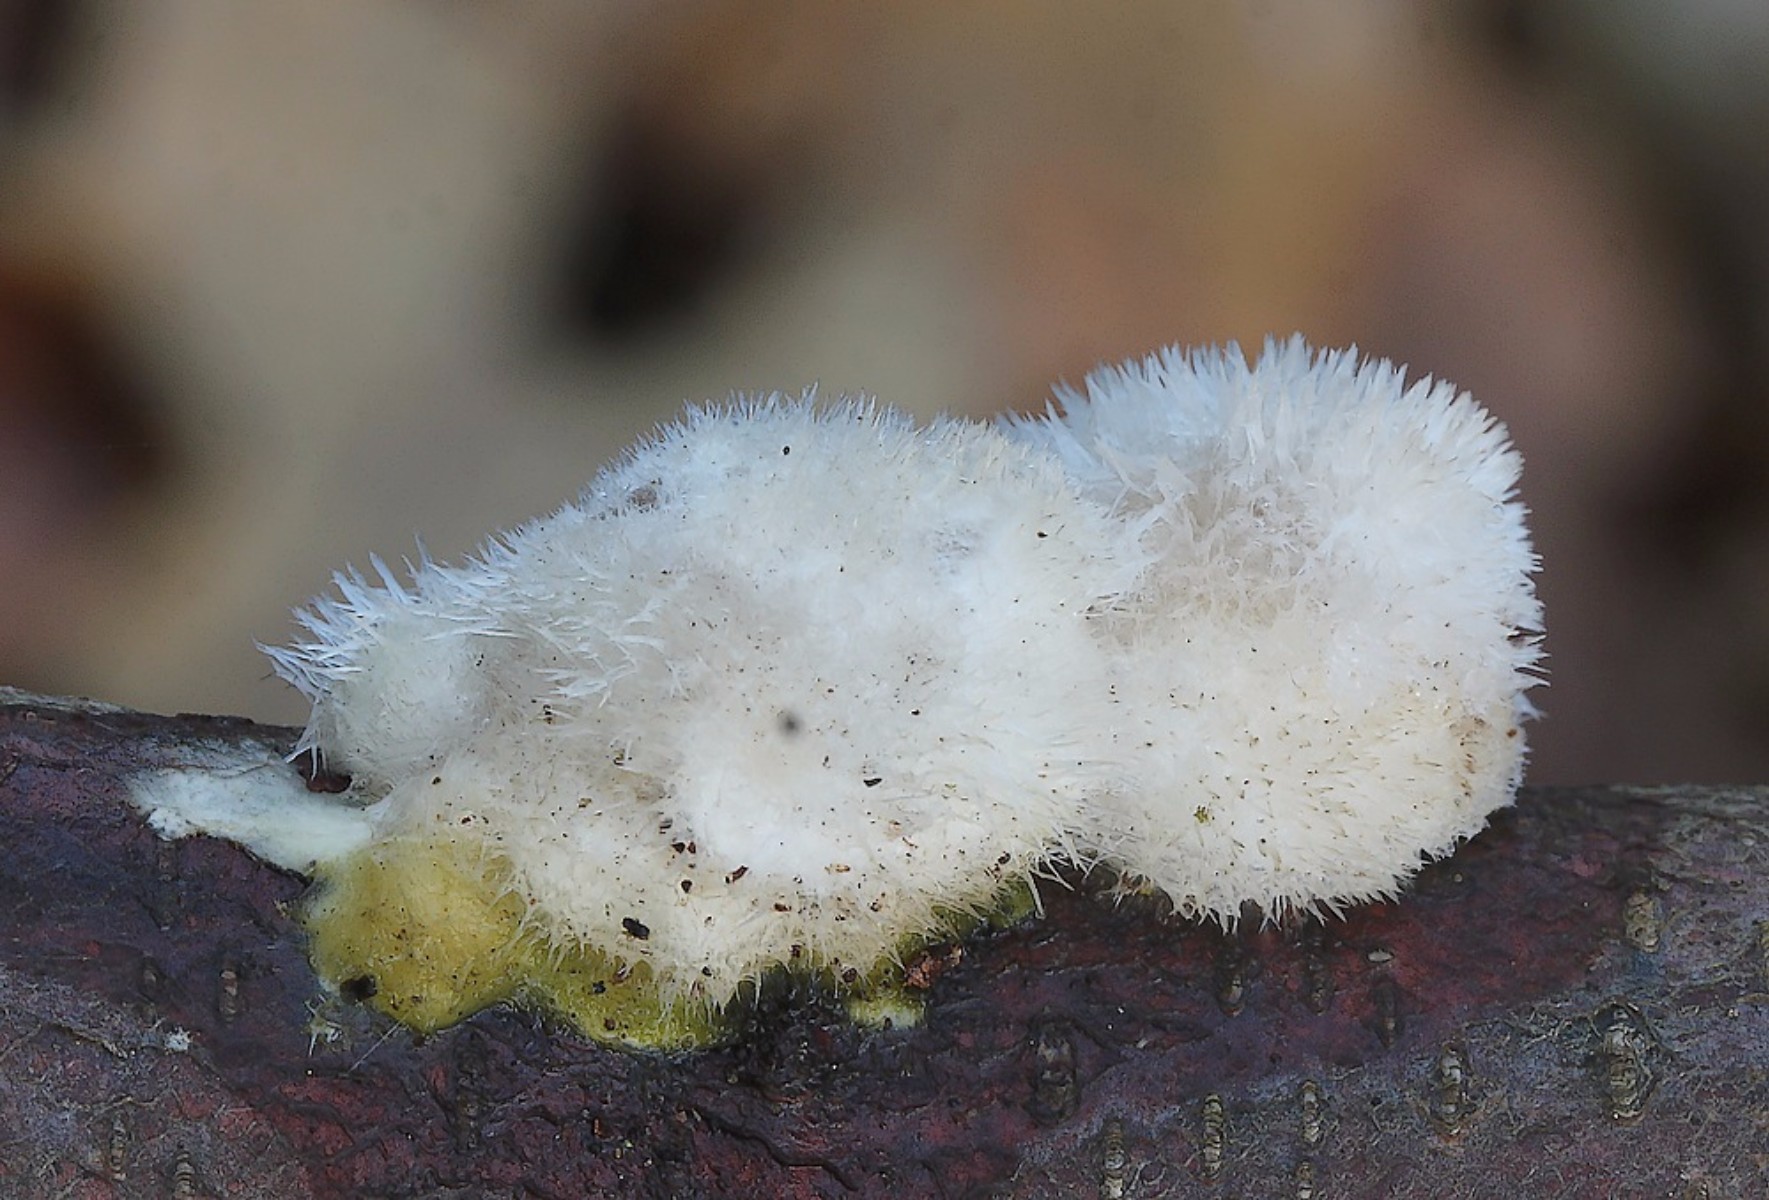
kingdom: Fungi
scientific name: Fungi
